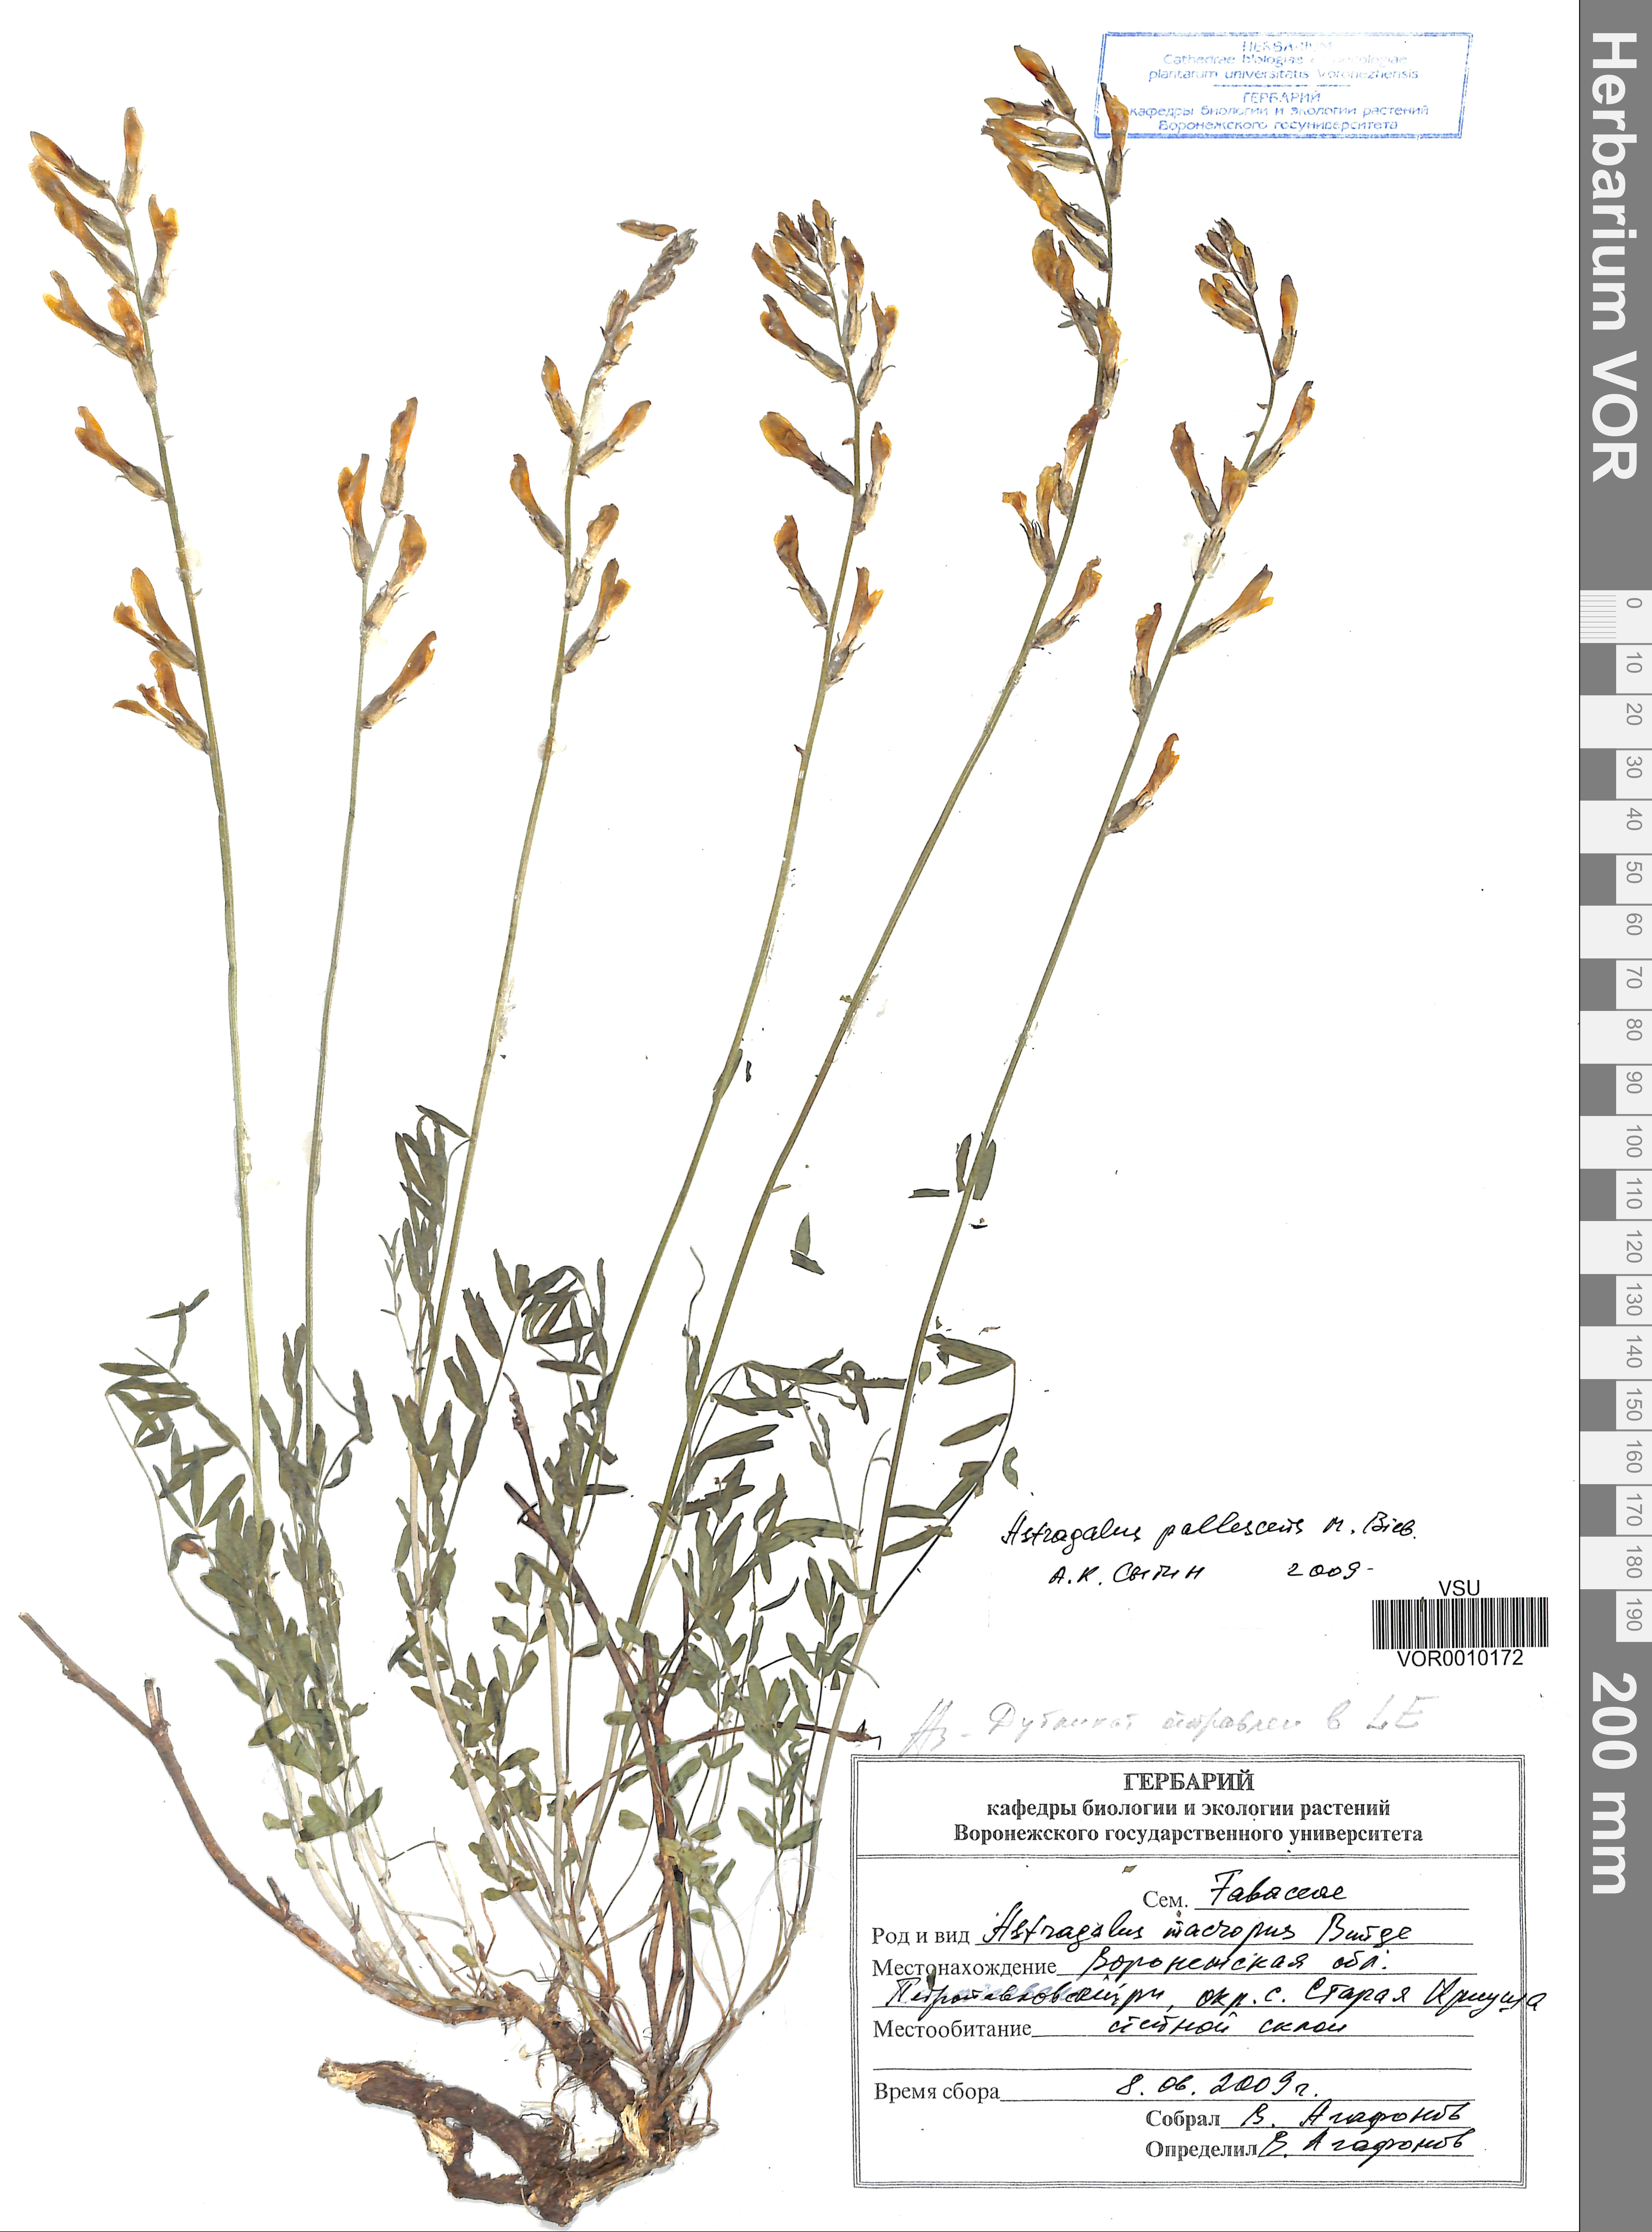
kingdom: Plantae
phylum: Tracheophyta
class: Magnoliopsida
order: Fabales
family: Fabaceae
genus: Astragalus
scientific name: Astragalus pallescens
